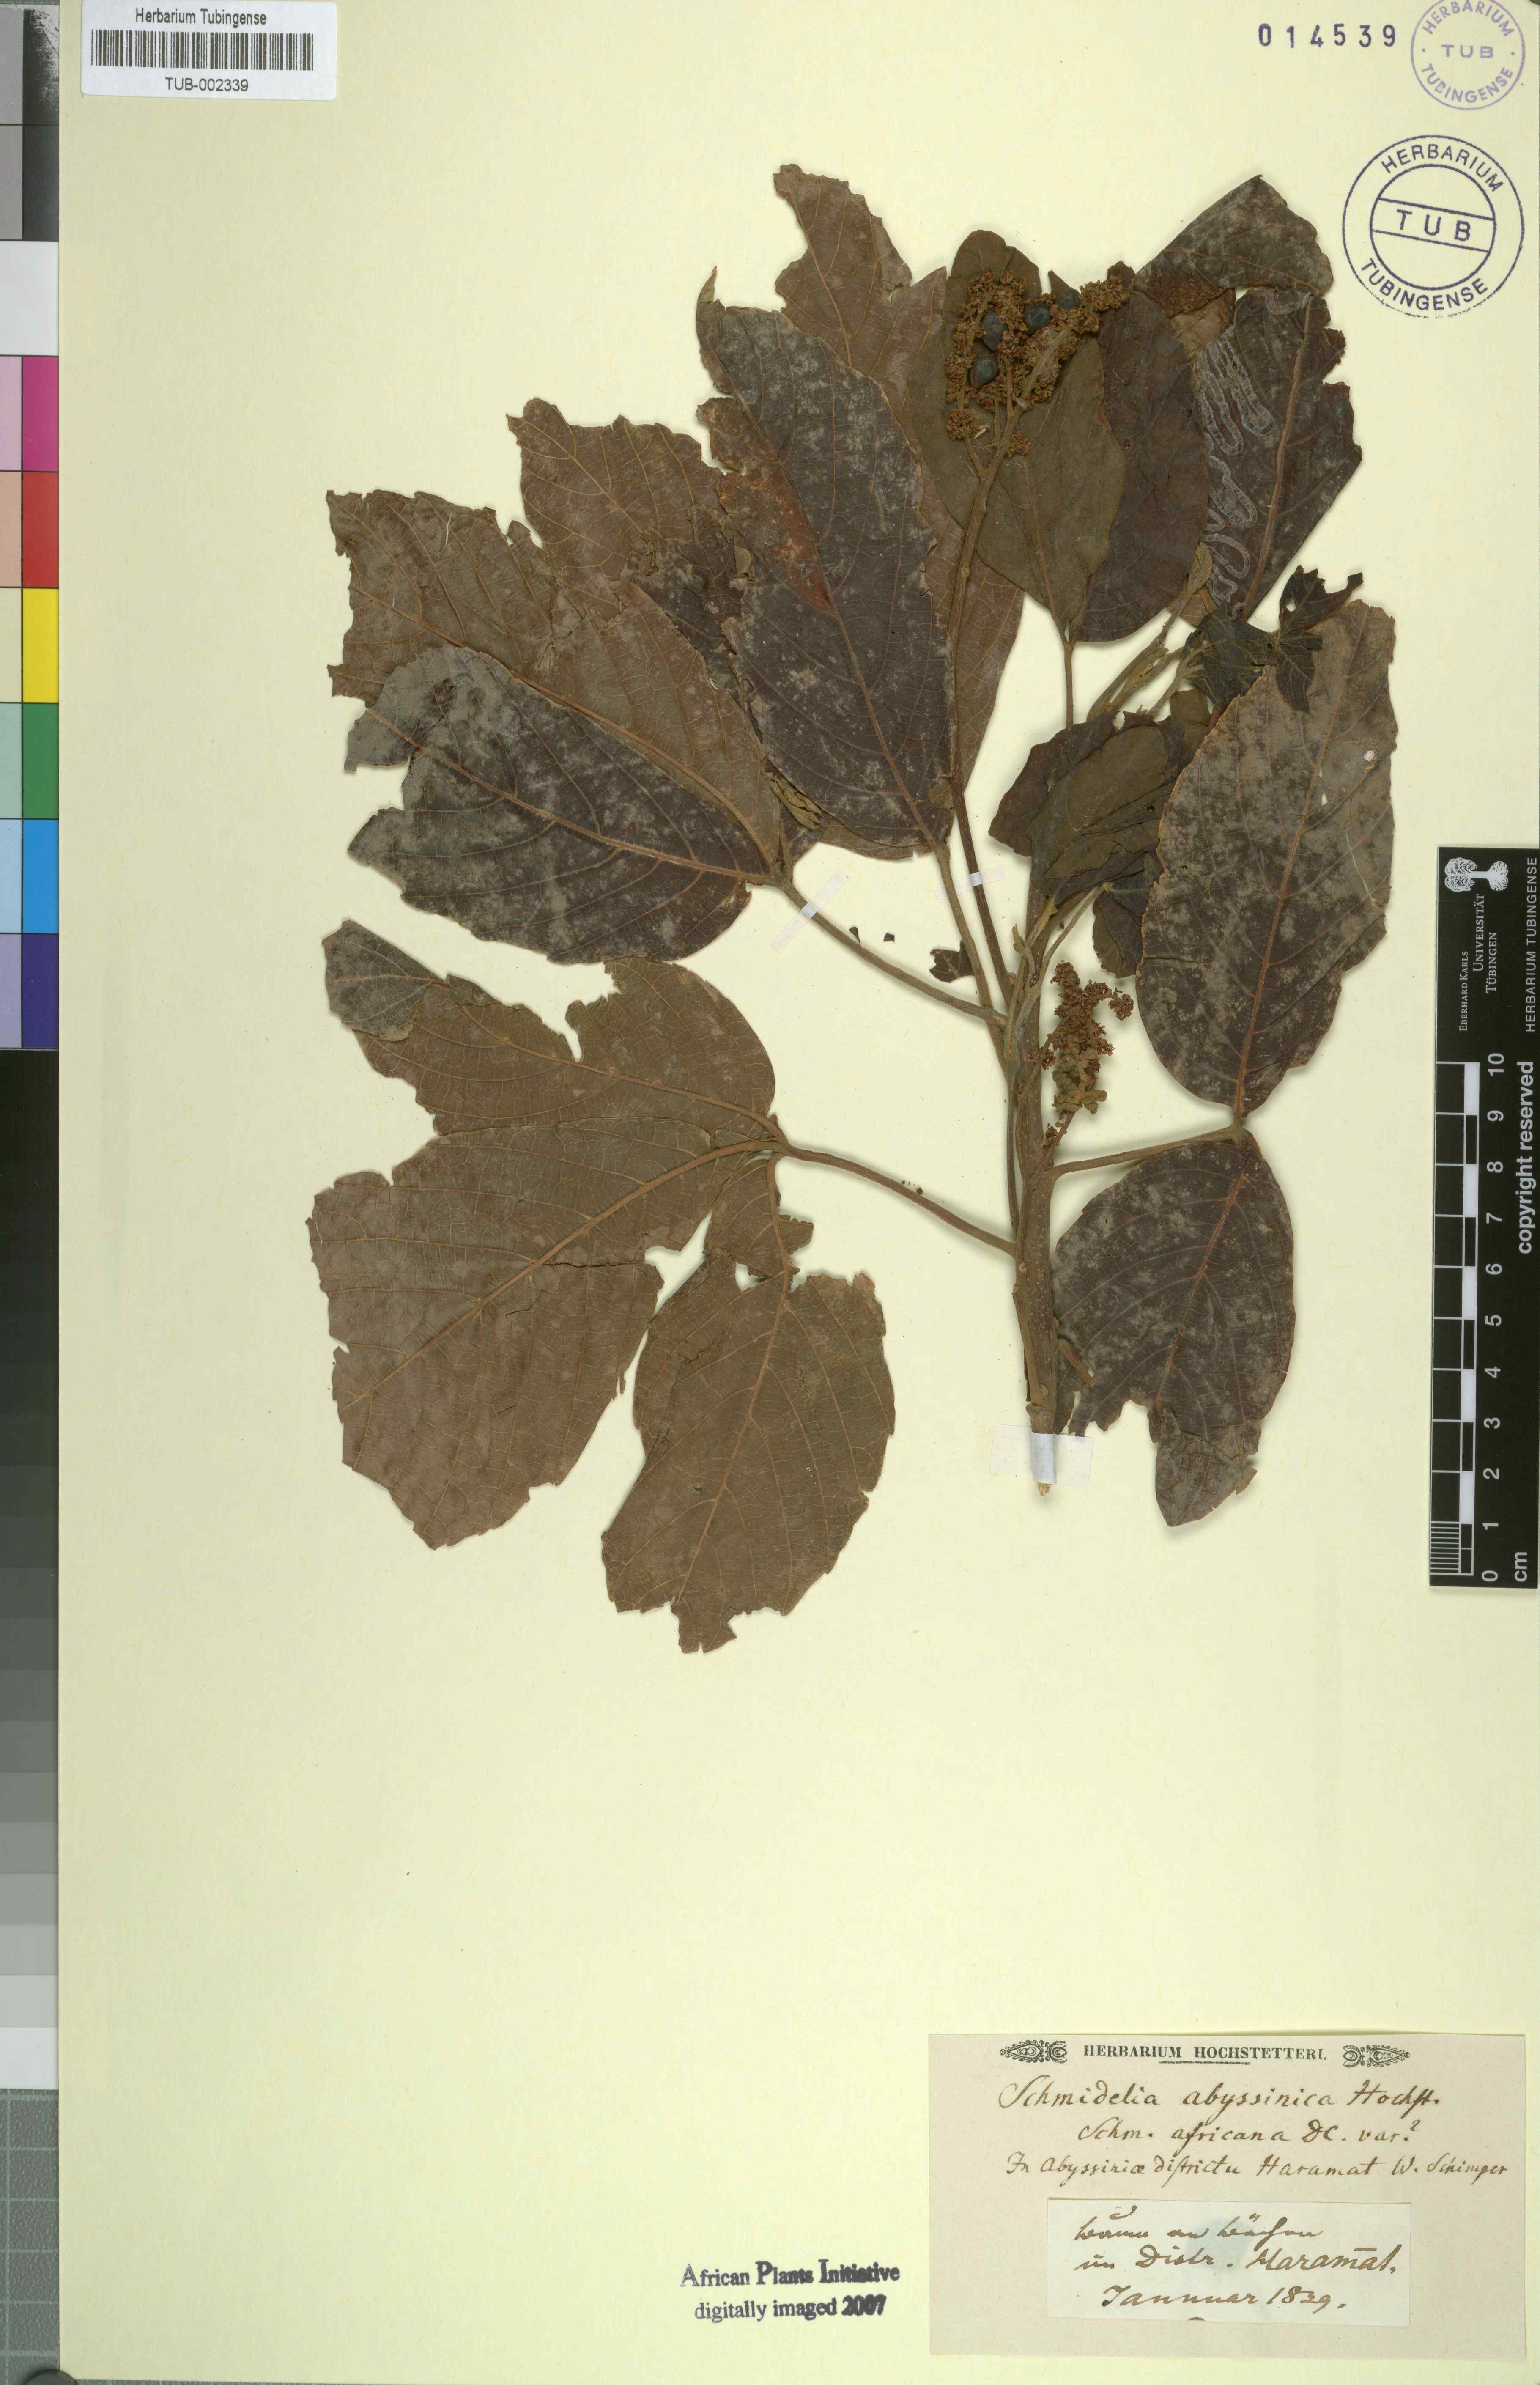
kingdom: Plantae
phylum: Tracheophyta
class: Magnoliopsida
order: Sapindales
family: Sapindaceae
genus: Allophylus
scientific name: Allophylus zeylanicus
